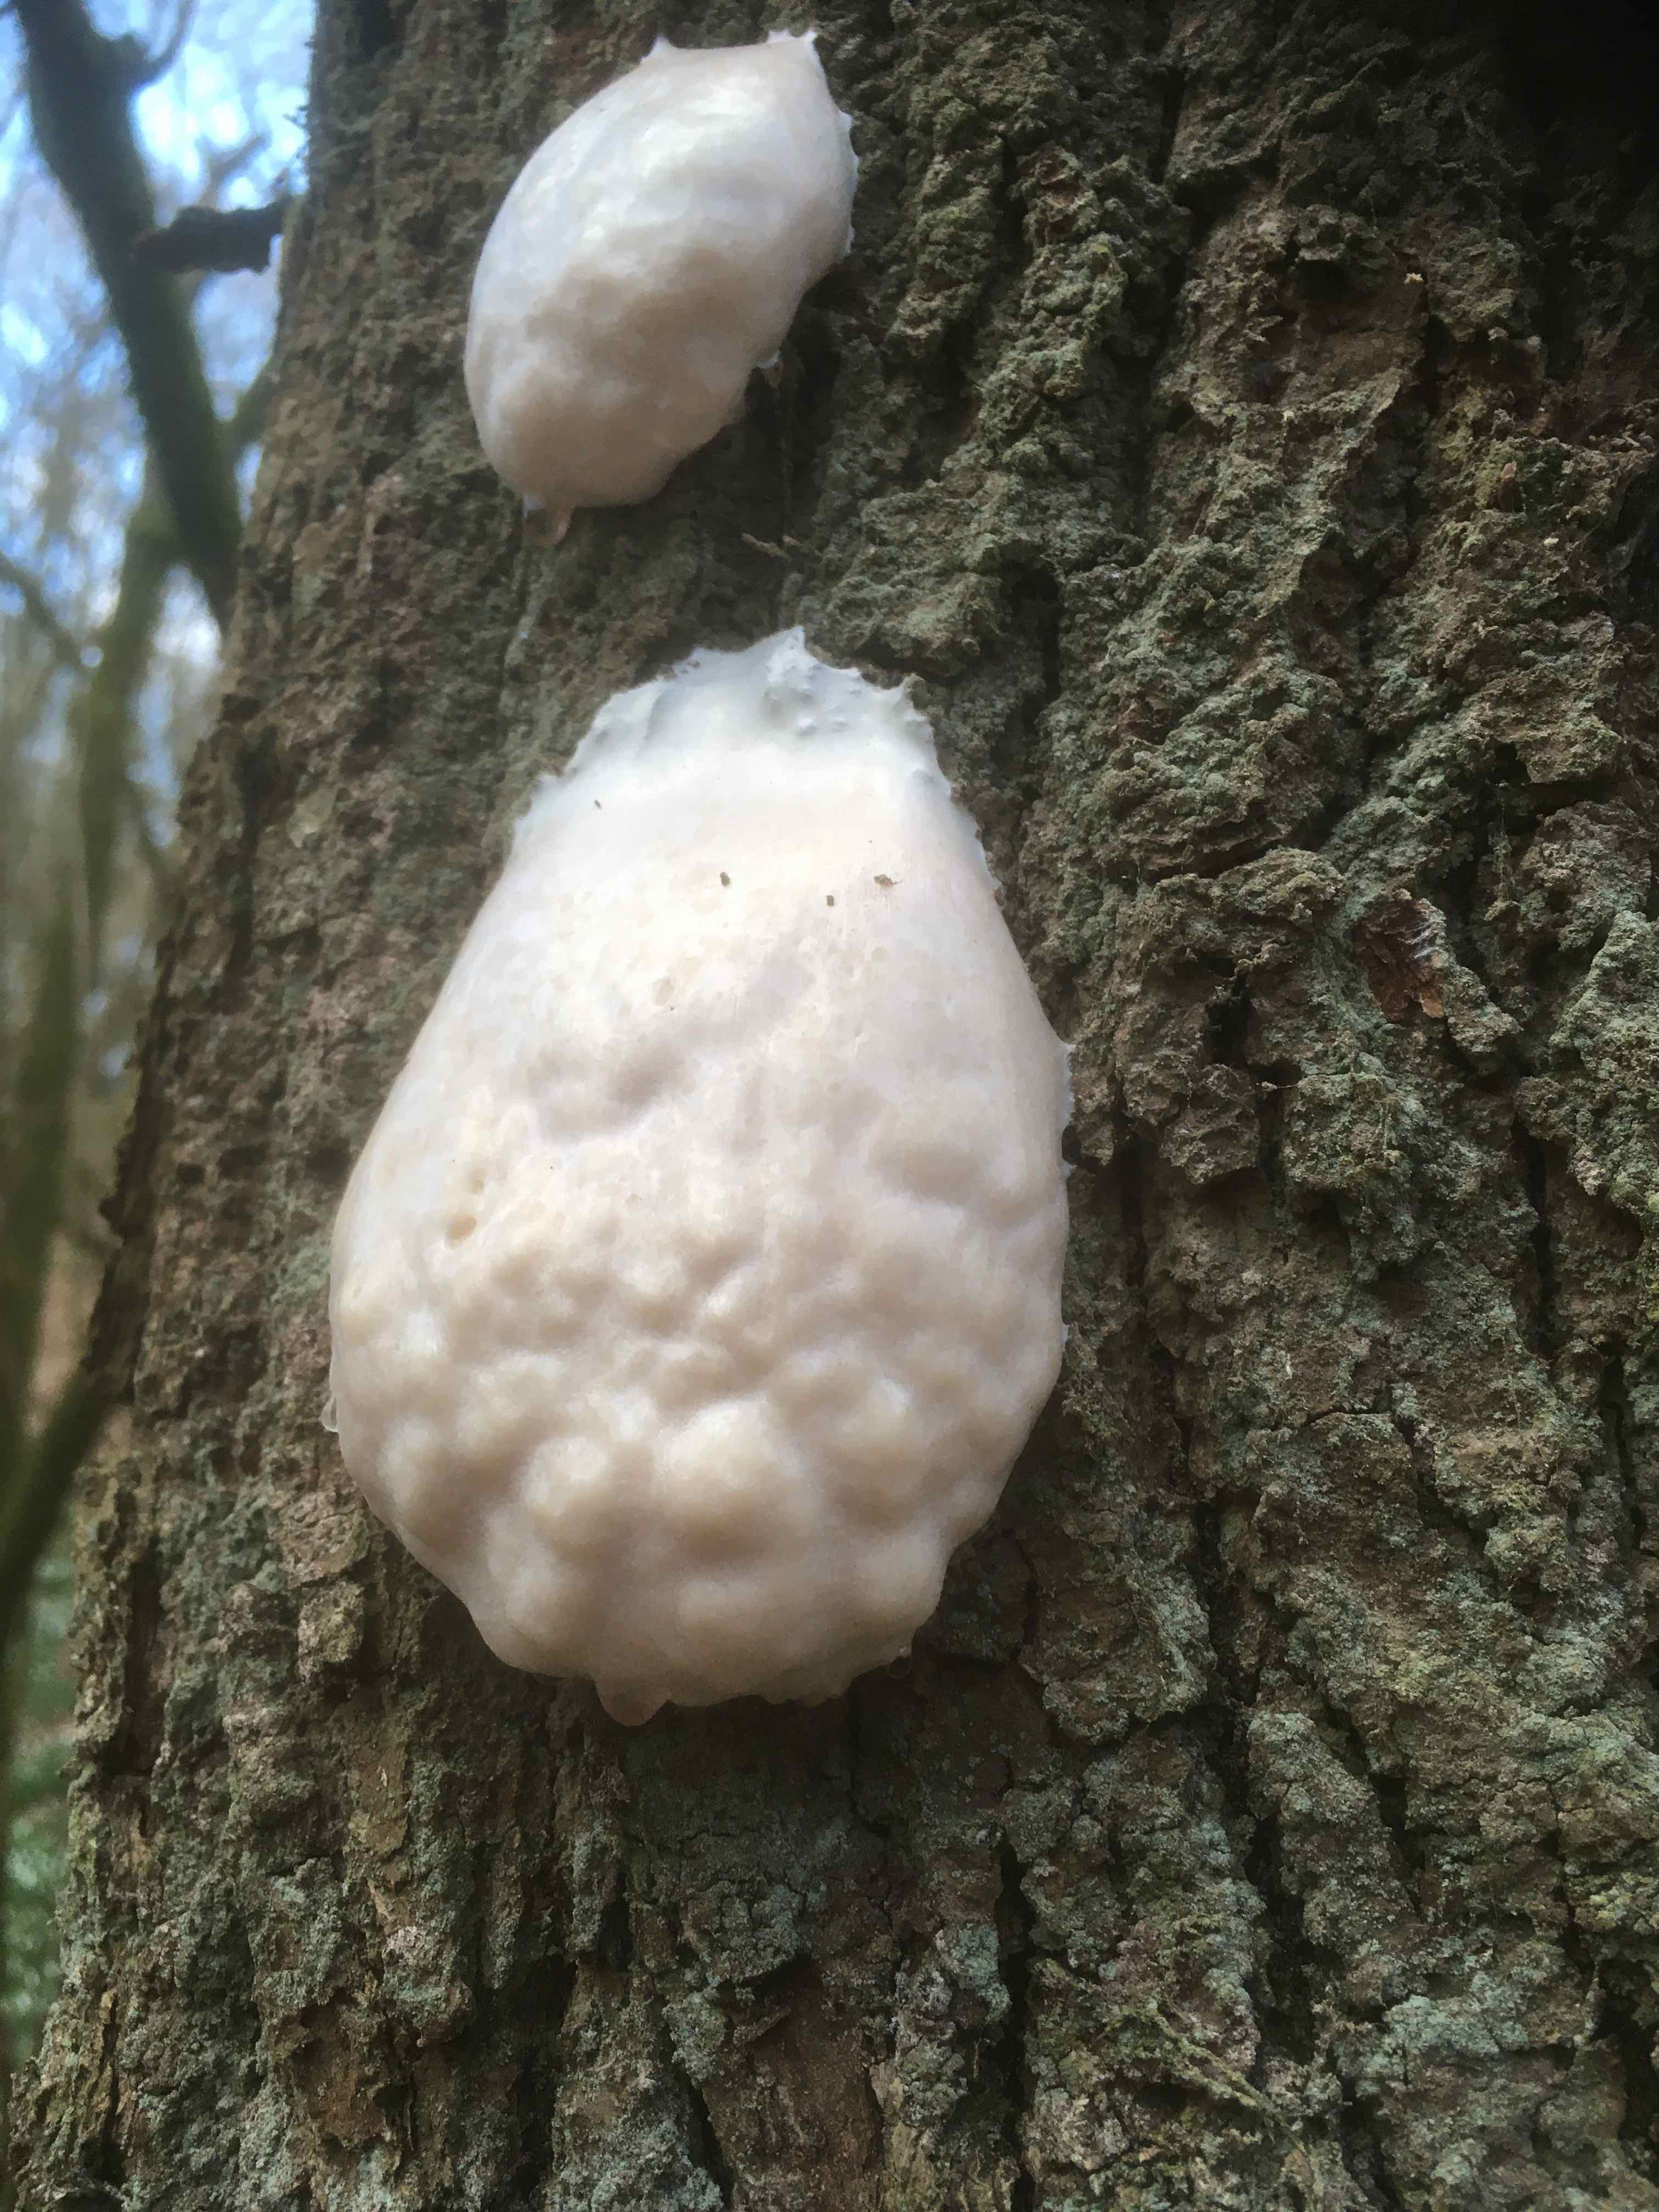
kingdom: Protozoa
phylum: Mycetozoa
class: Myxomycetes
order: Cribrariales
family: Tubiferaceae
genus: Reticularia
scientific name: Reticularia lycoperdon
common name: skinnende støvpude
